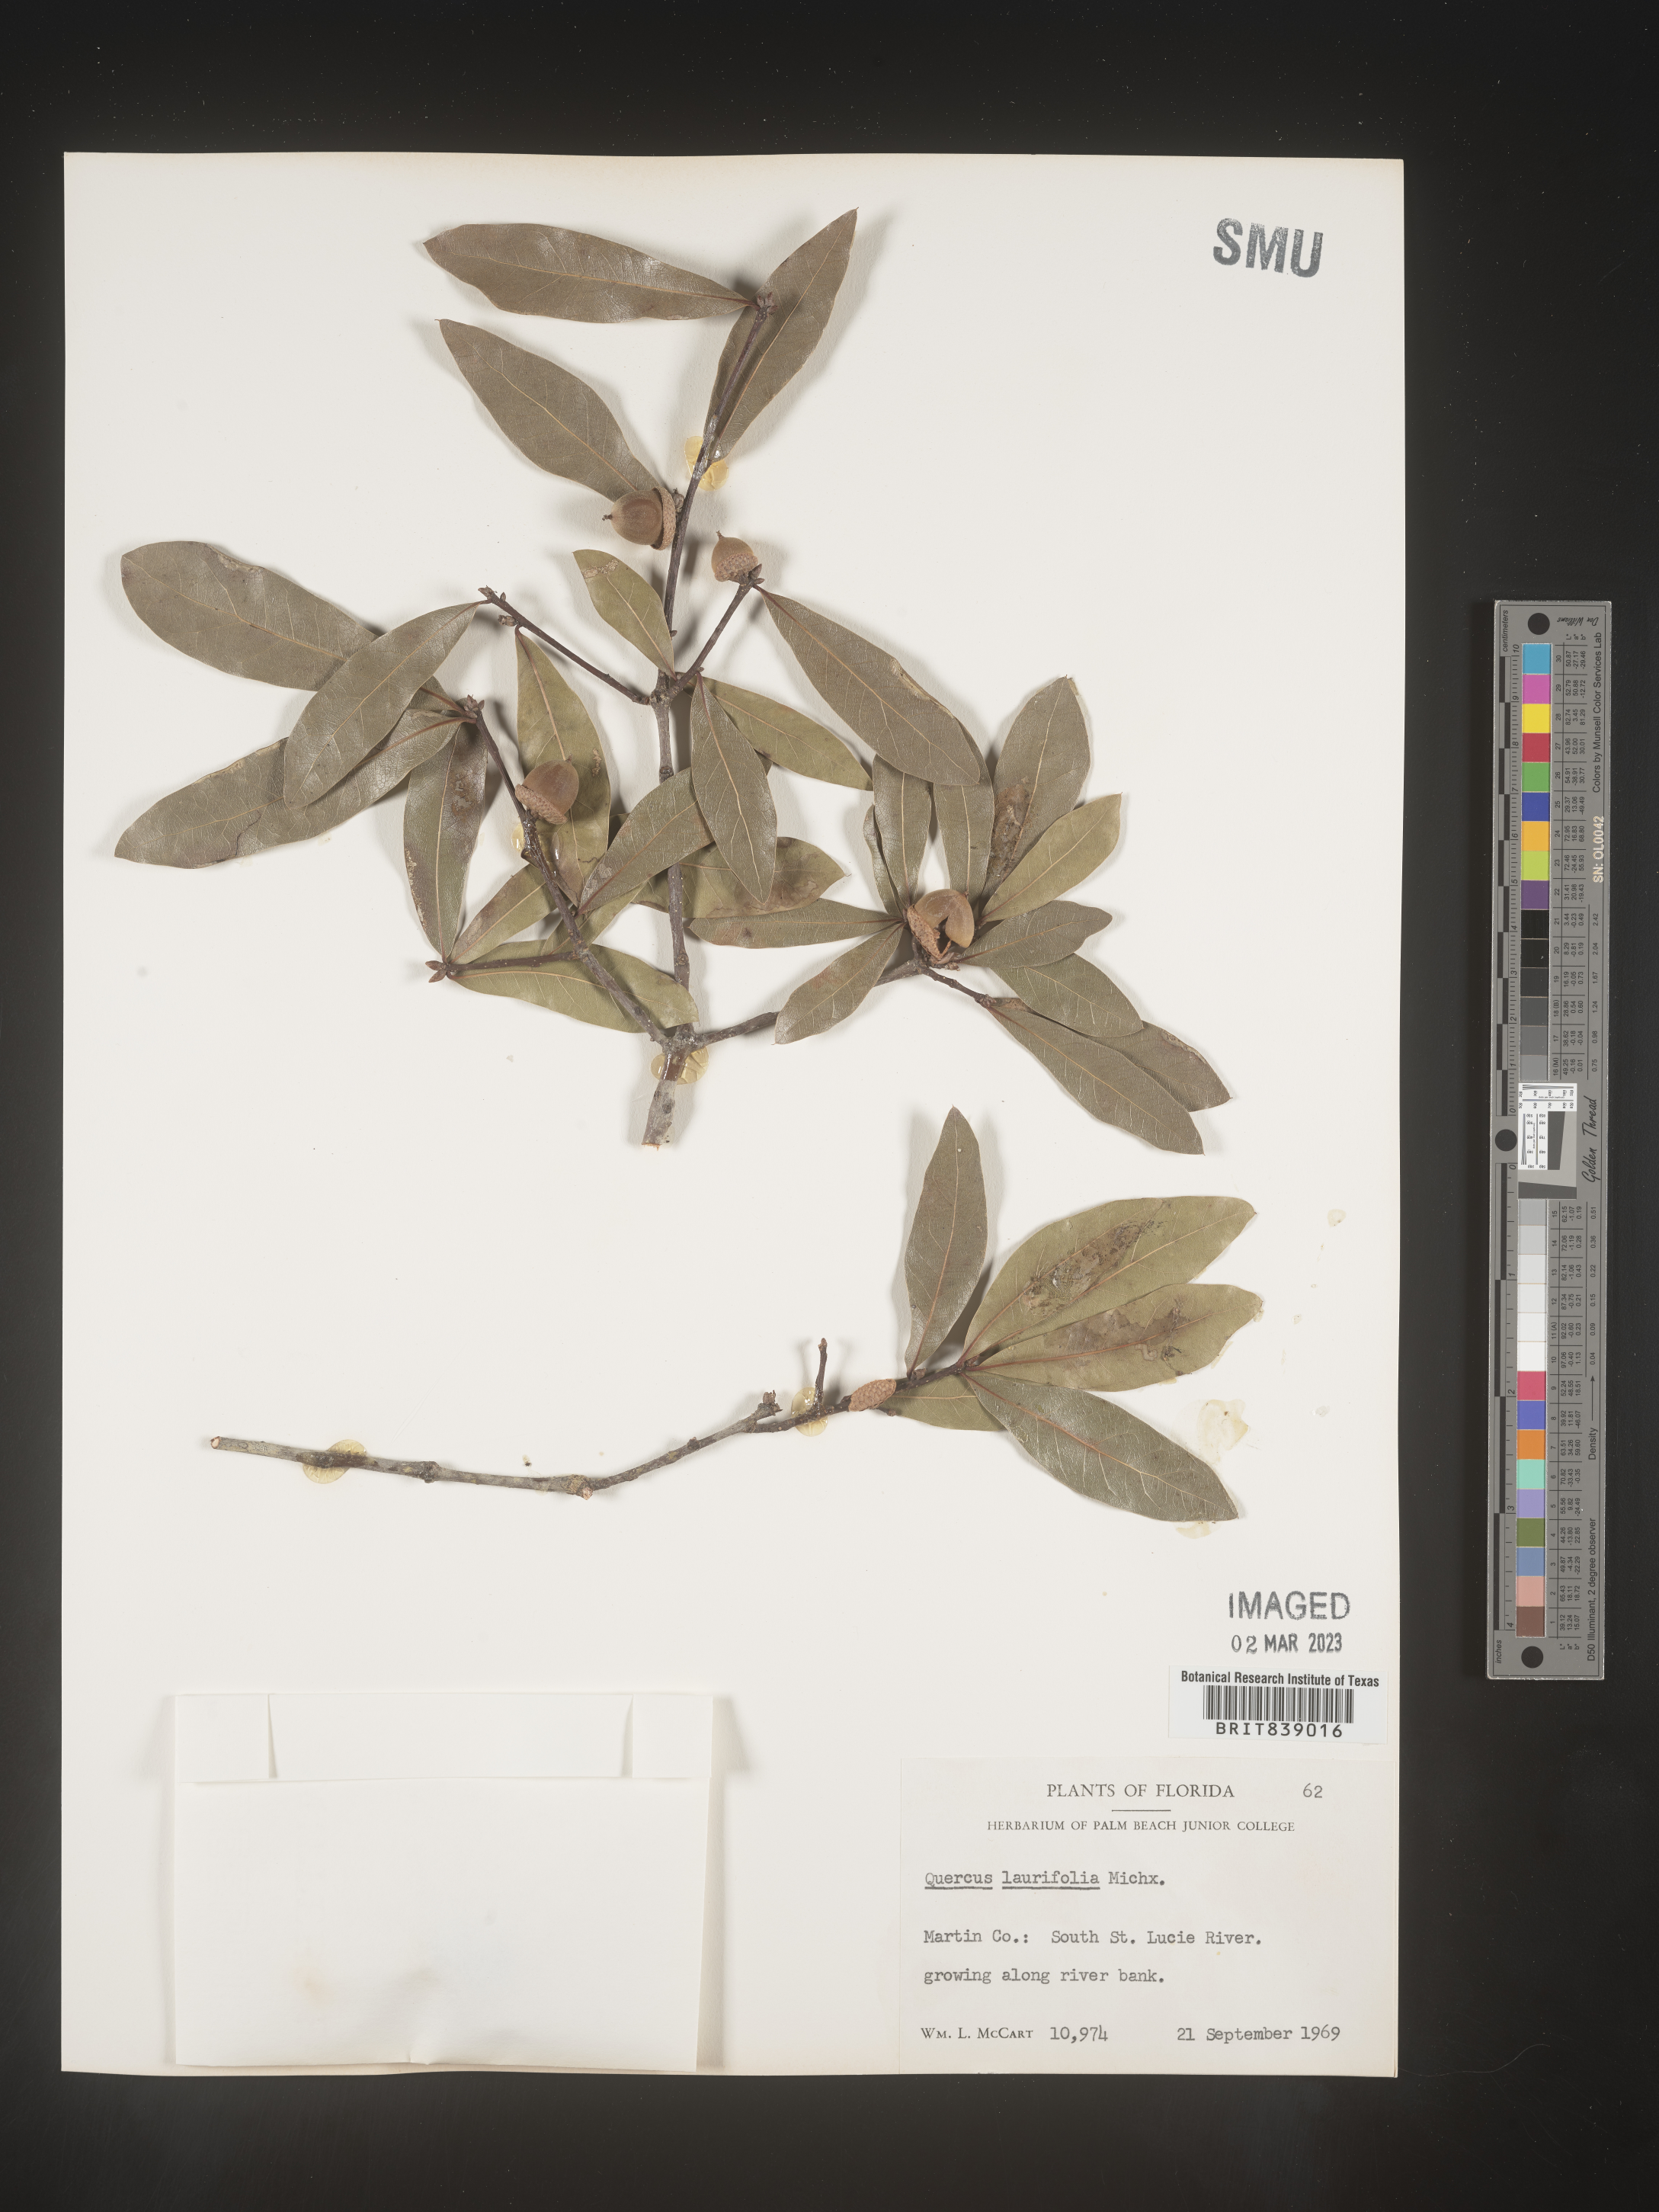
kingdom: Plantae
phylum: Tracheophyta
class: Magnoliopsida
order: Fagales
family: Fagaceae
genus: Quercus
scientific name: Quercus laurifolia
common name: Swamp laurel oak
